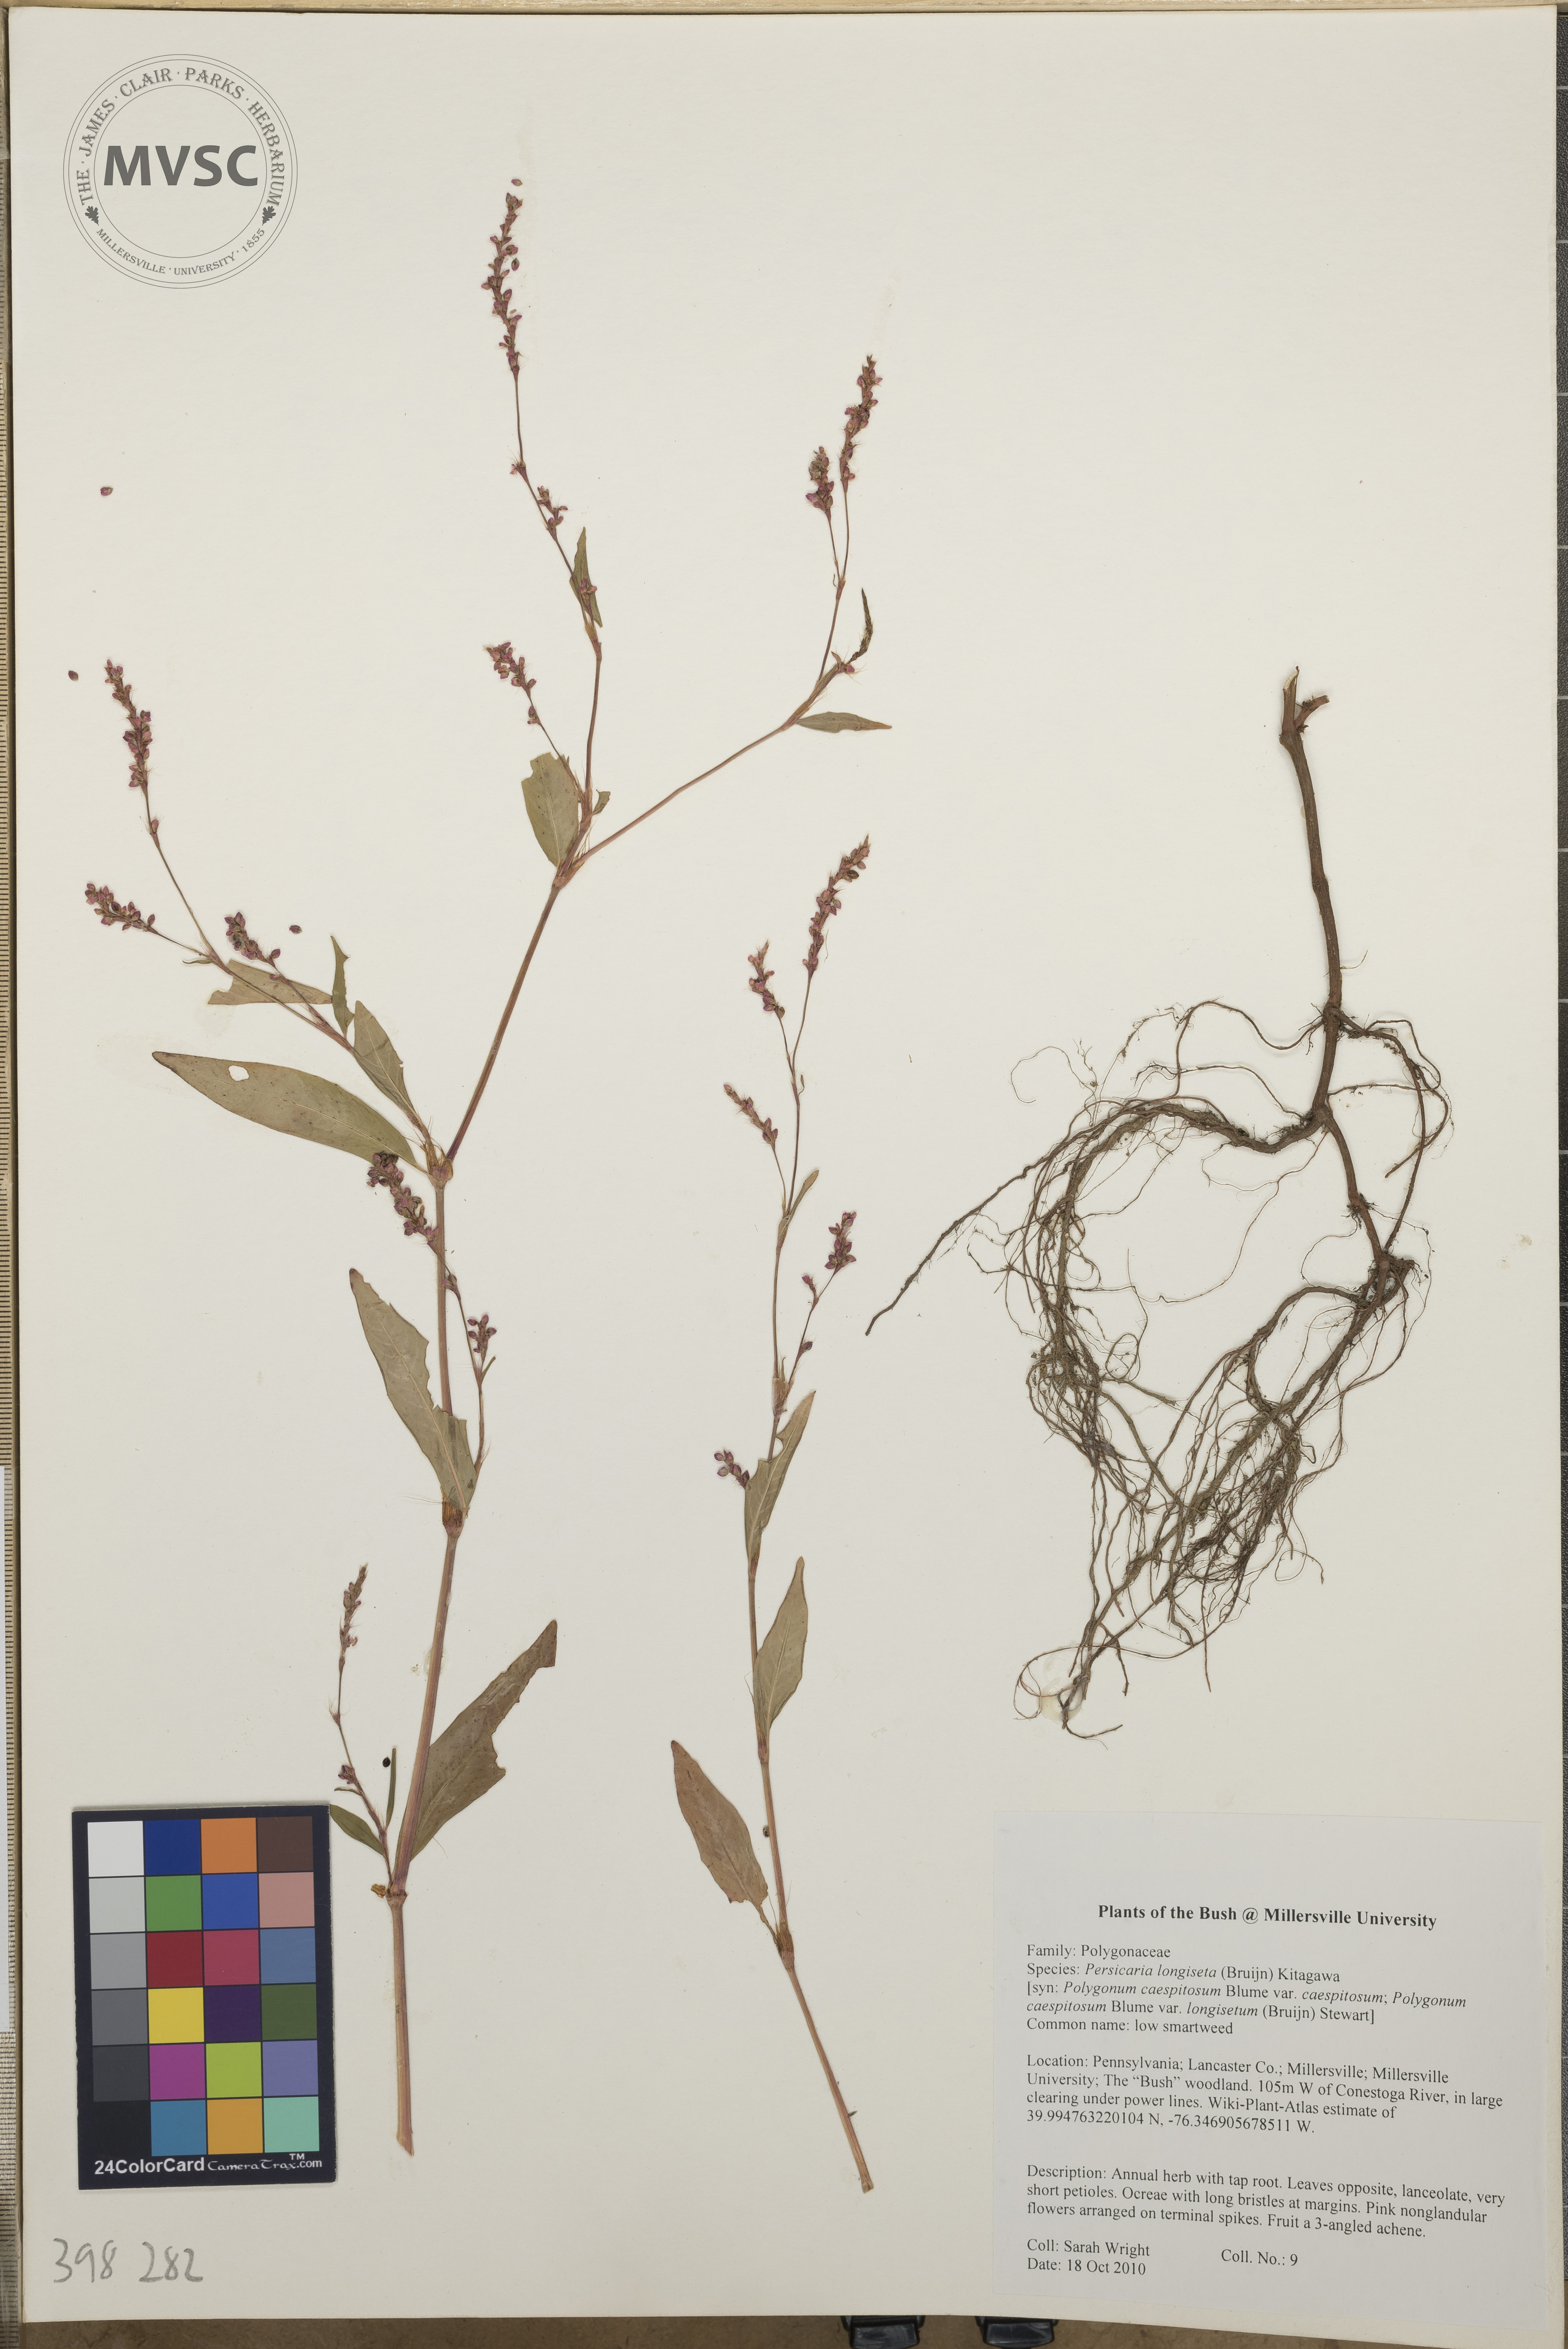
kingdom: Plantae
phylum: Tracheophyta
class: Magnoliopsida
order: Caryophyllales
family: Polygonaceae
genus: Persicaria
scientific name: Persicaria longiseta
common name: Low smartweed
